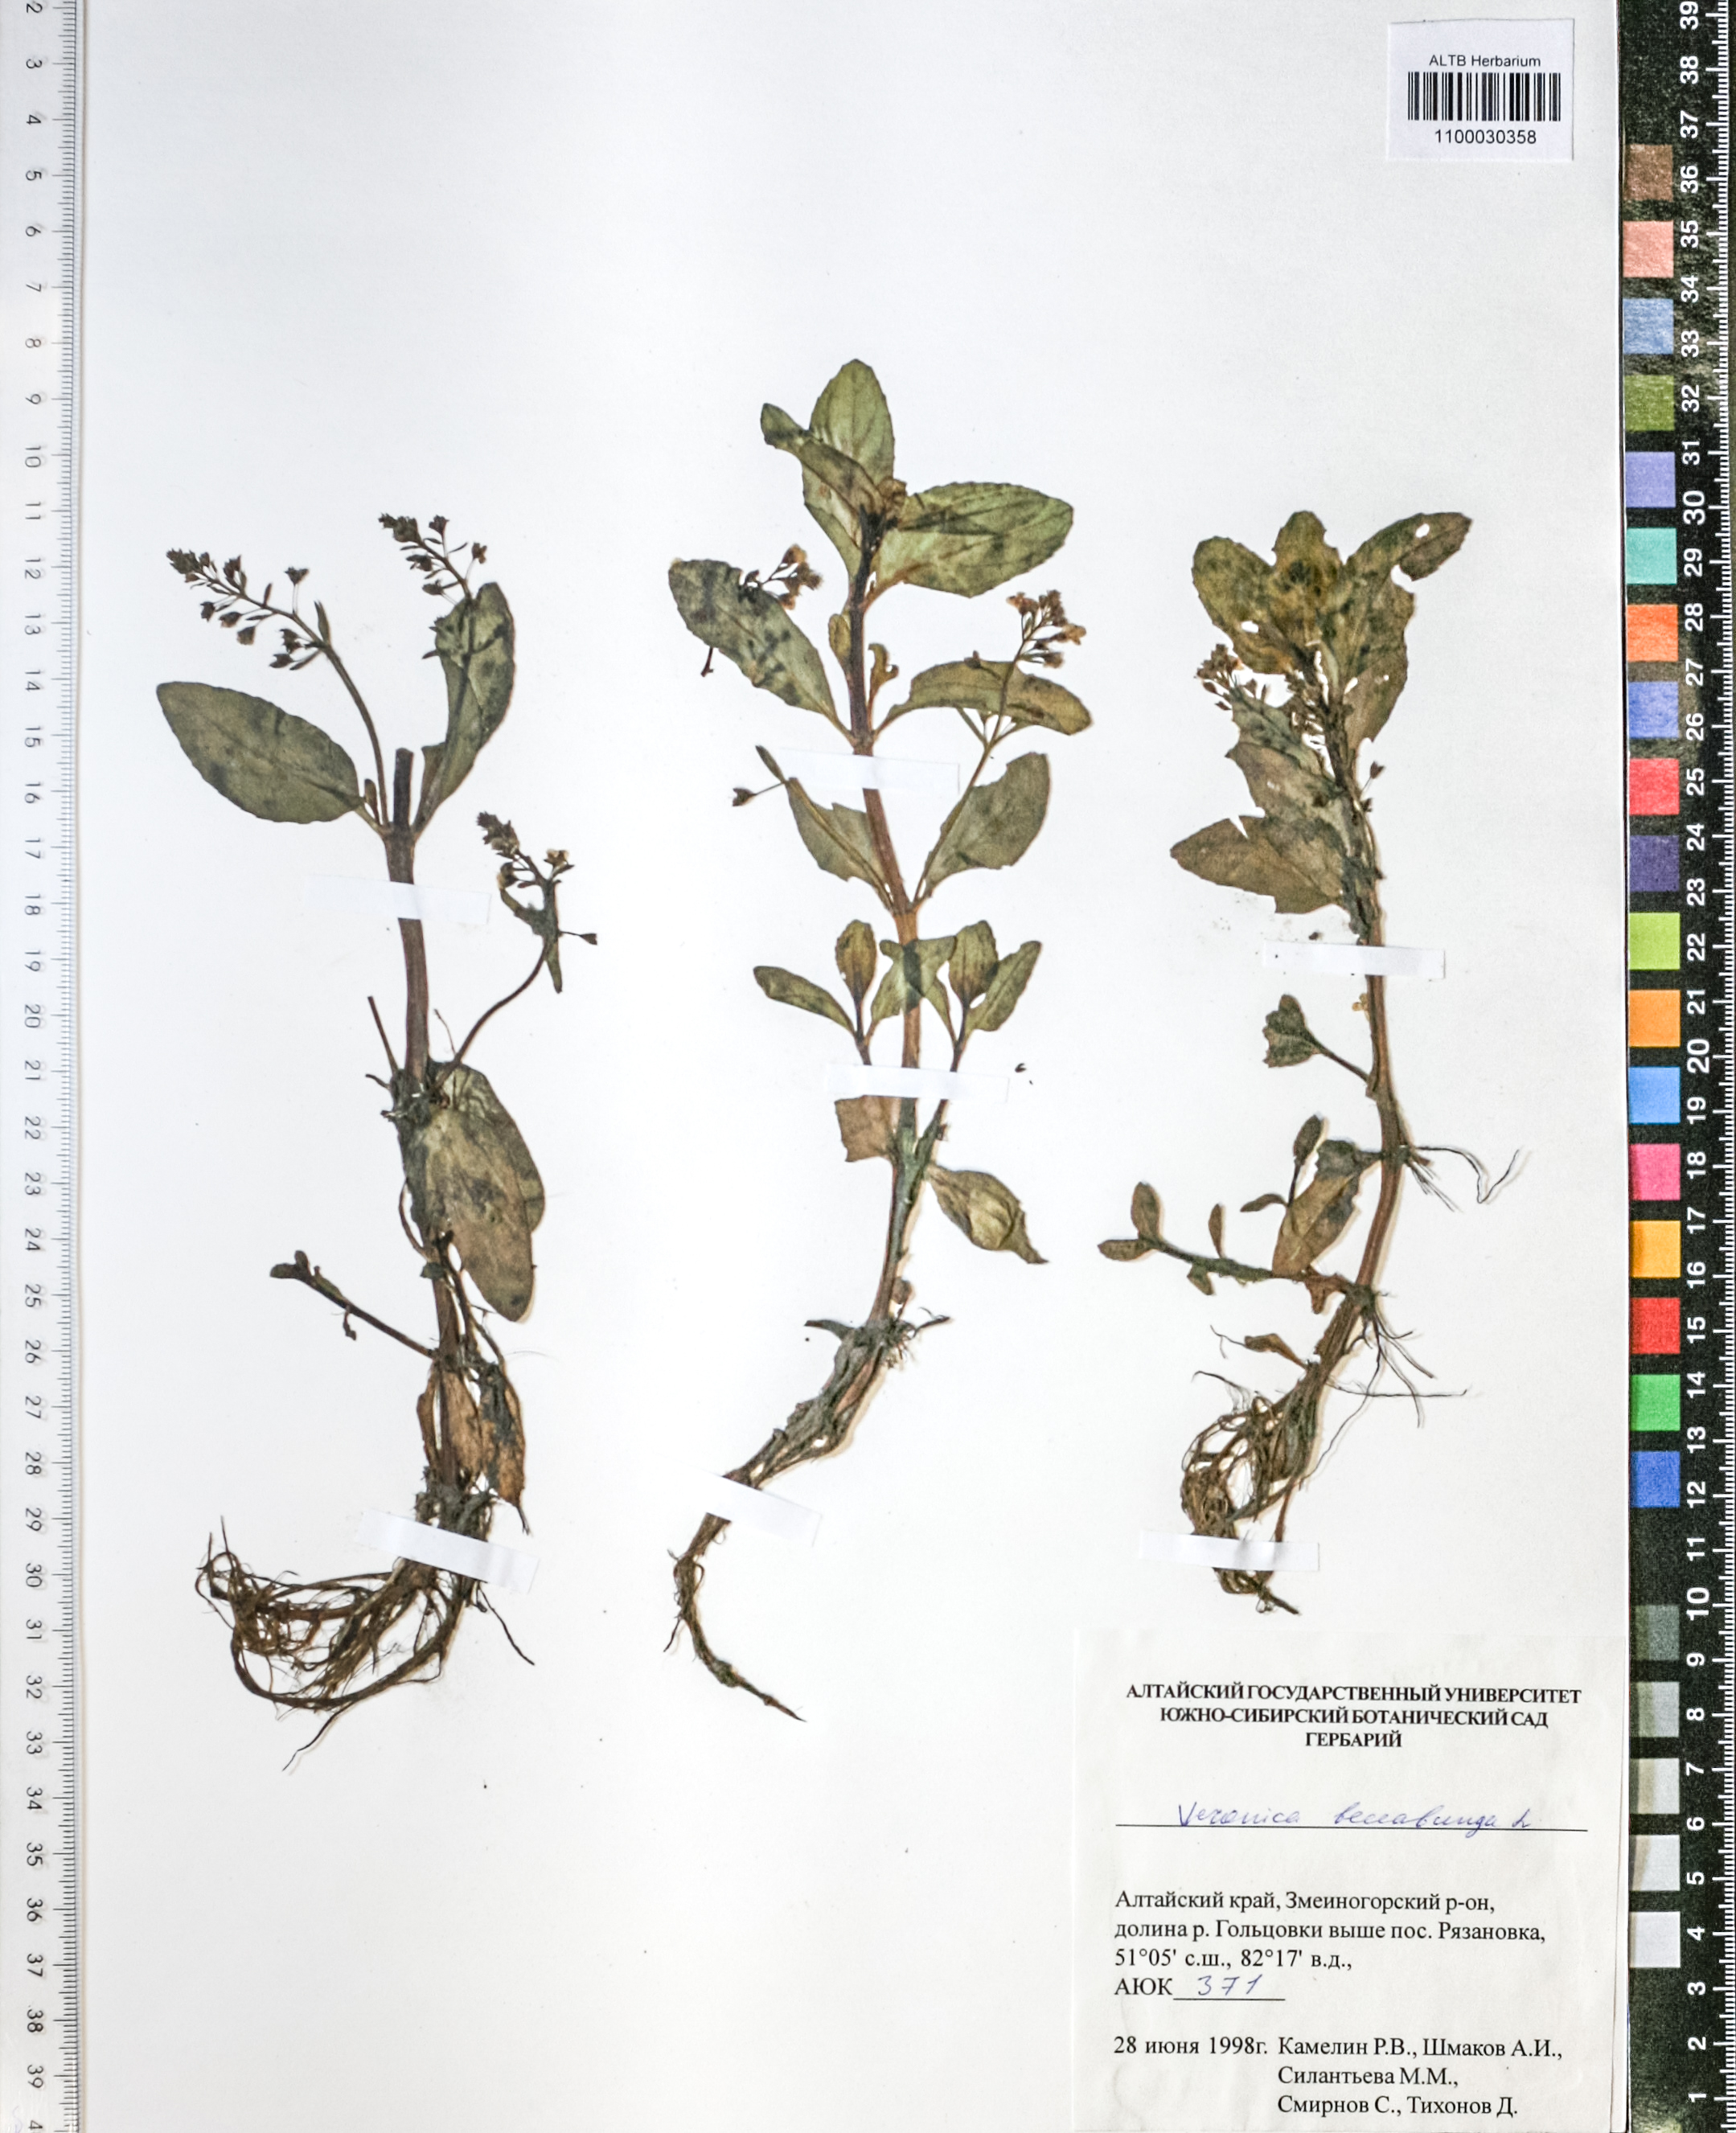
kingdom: Plantae
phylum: Tracheophyta
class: Magnoliopsida
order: Lamiales
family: Plantaginaceae
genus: Veronica
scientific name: Veronica beccabunga
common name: Brooklime
